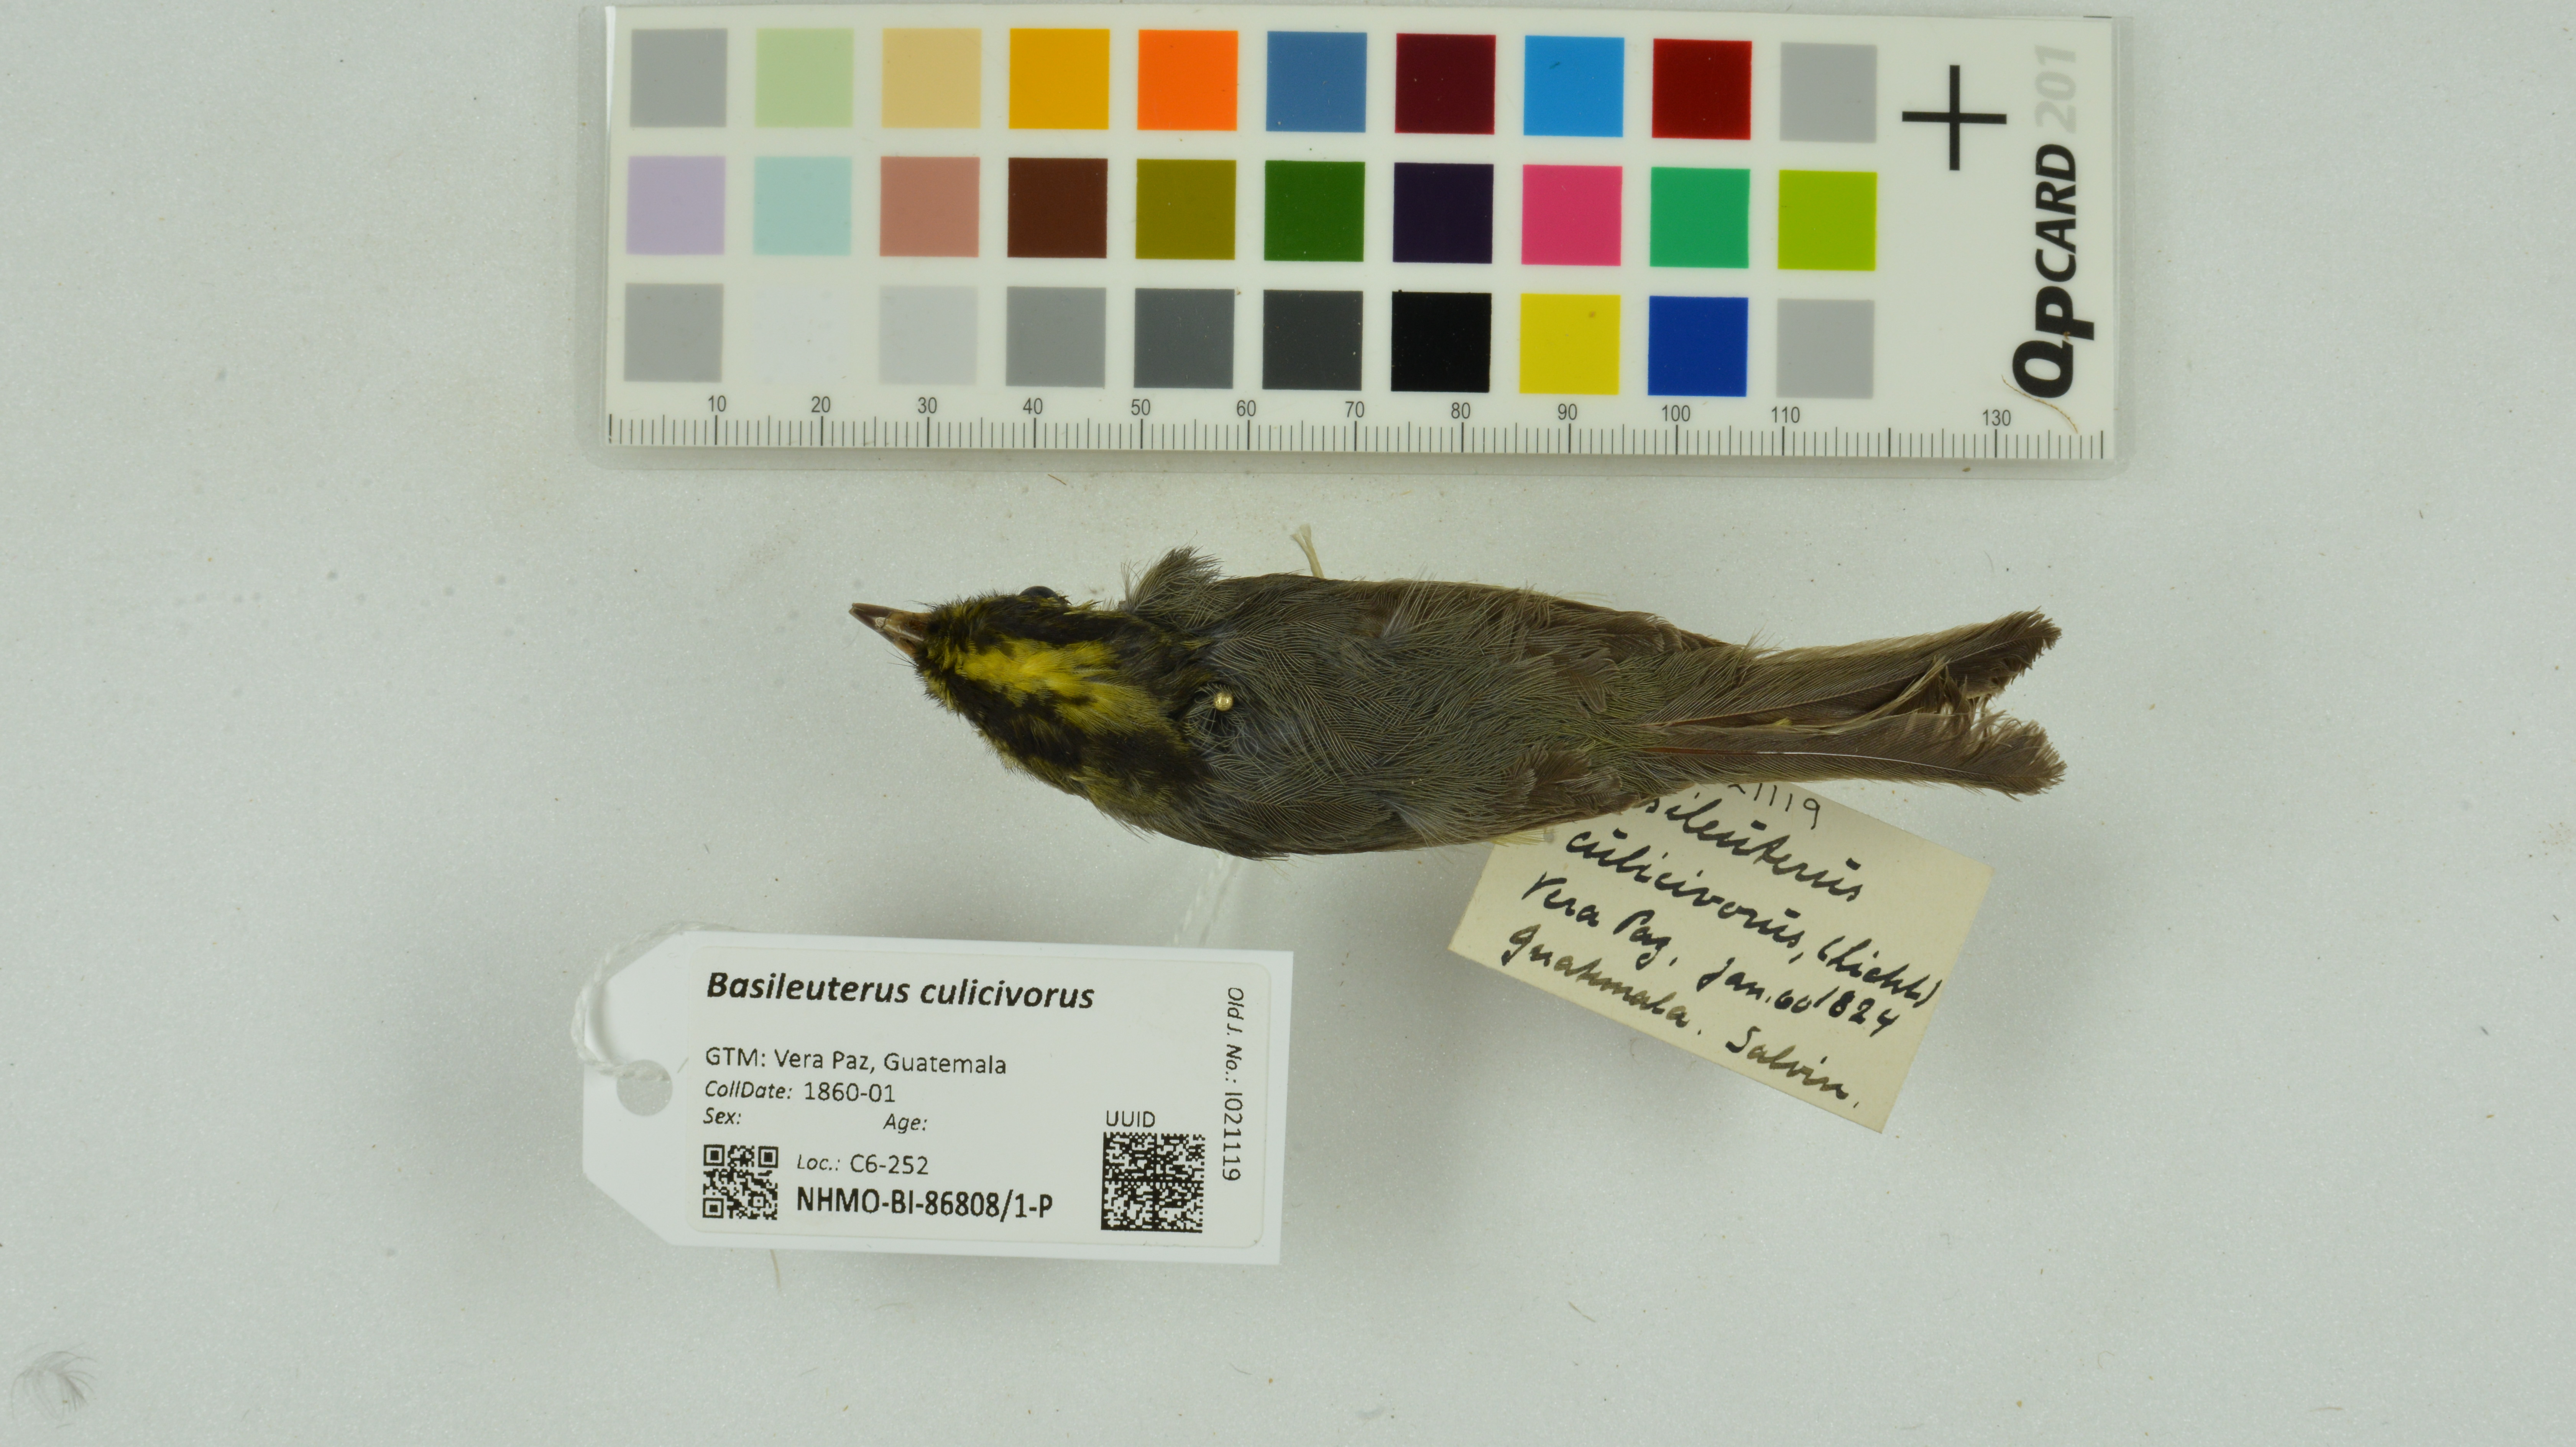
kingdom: Animalia
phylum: Chordata
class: Aves
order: Passeriformes
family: Parulidae
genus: Basileuterus
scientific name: Basileuterus culicivorus
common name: Golden-crowned warbler
